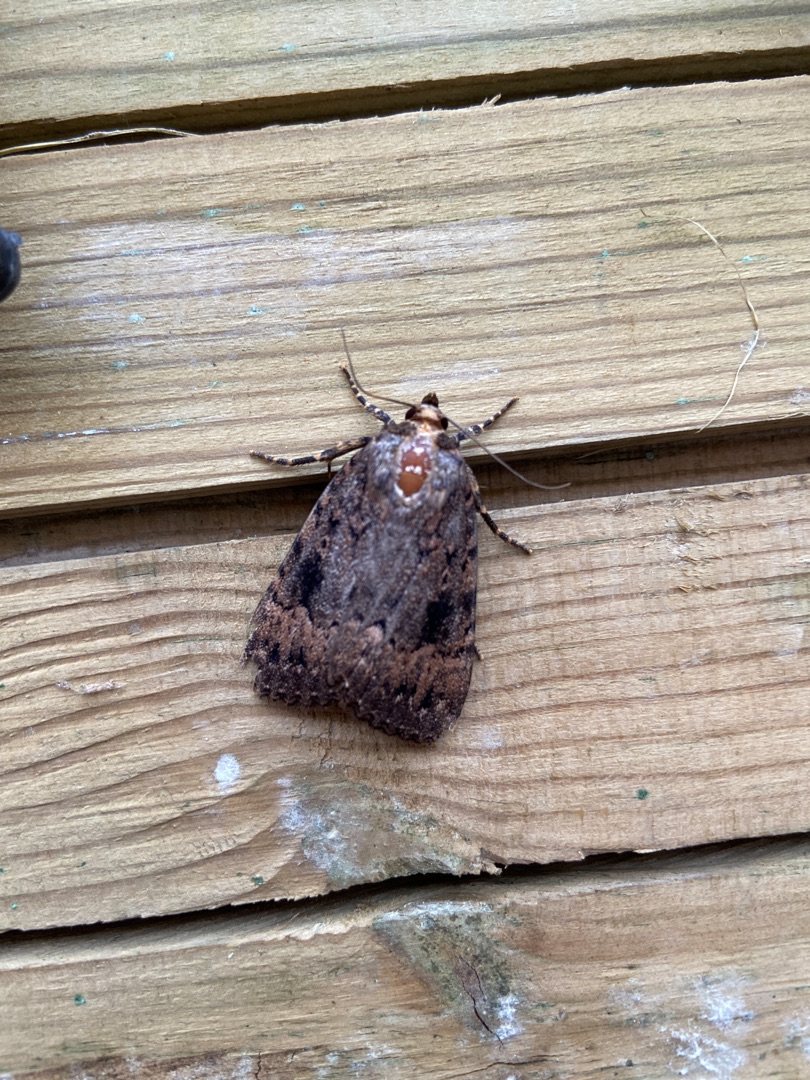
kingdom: Animalia
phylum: Arthropoda
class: Insecta
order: Lepidoptera
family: Noctuidae
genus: Amphipyra
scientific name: Amphipyra pyramidea
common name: Pyramideugle
